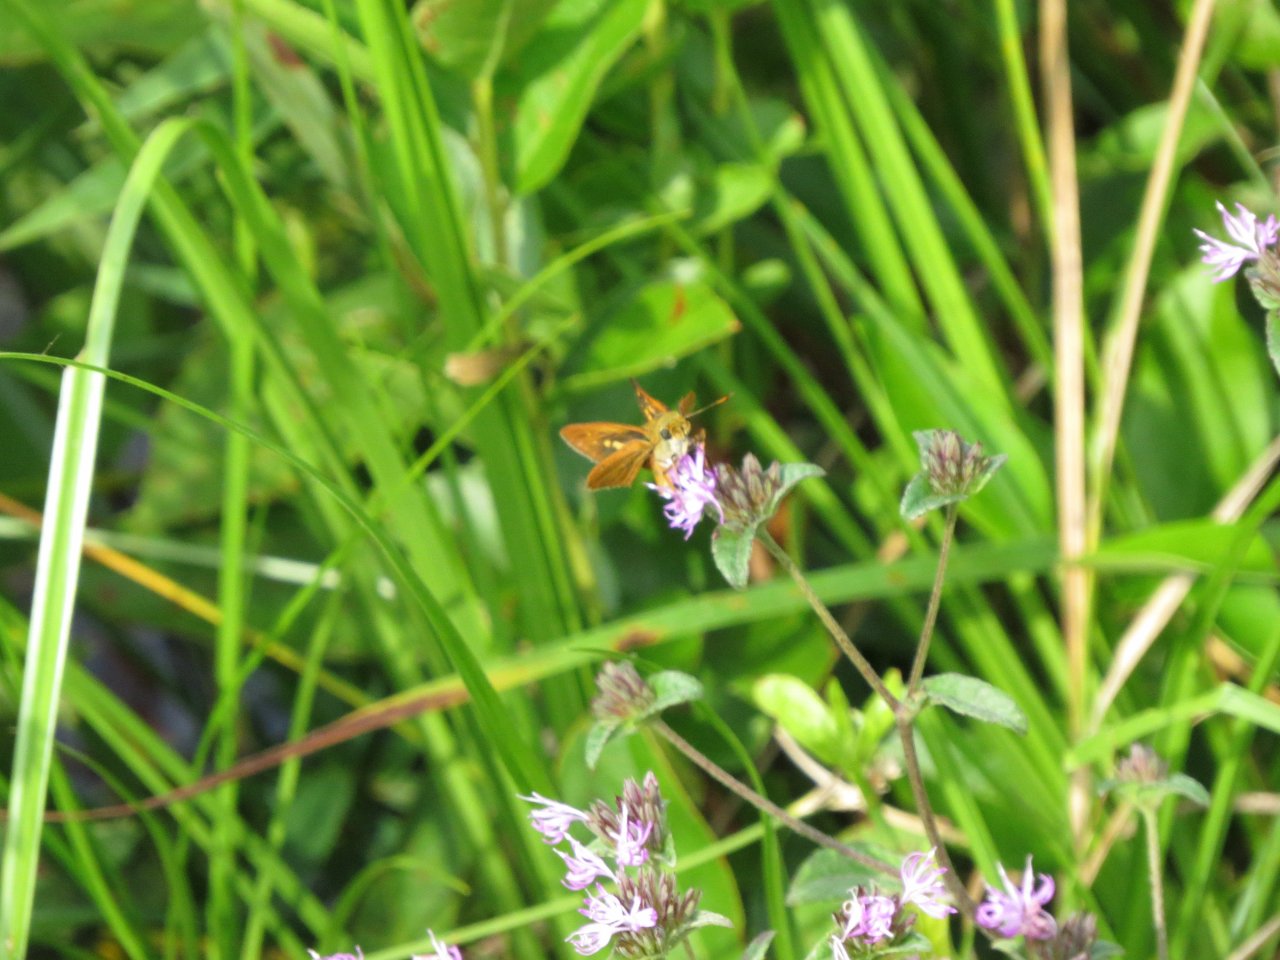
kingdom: Animalia
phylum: Arthropoda
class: Insecta
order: Lepidoptera
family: Hesperiidae
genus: Problema
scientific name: Problema byssus
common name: Byssus Skipper
